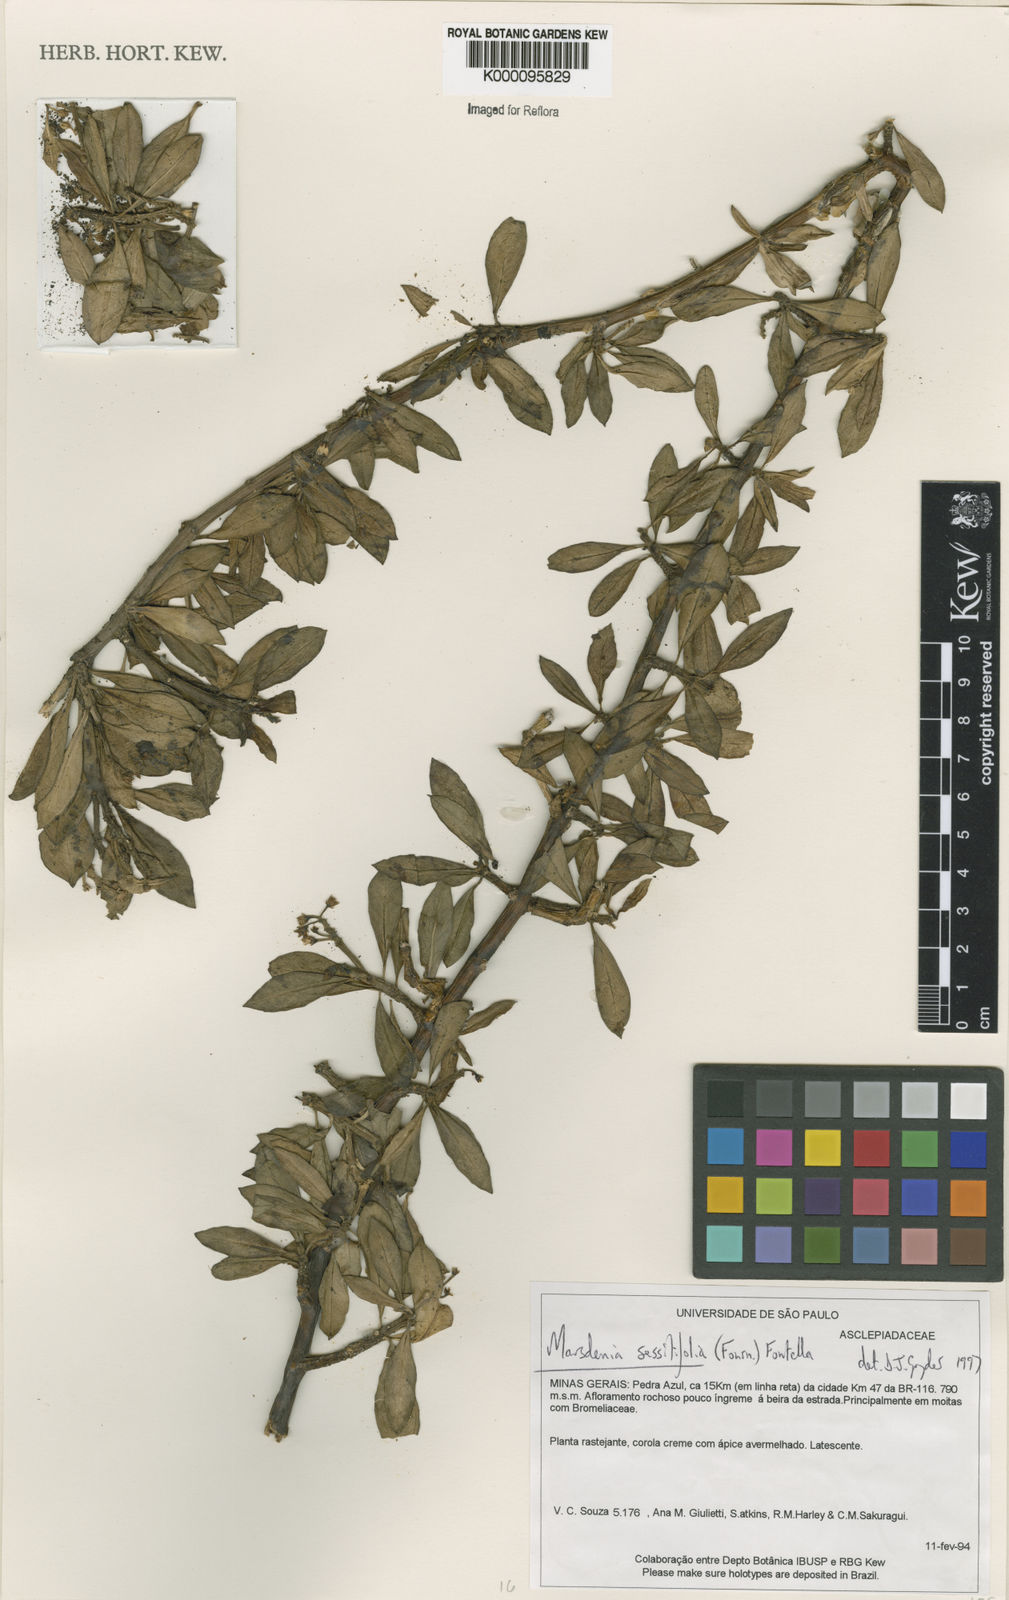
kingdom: Plantae
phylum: Tracheophyta
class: Magnoliopsida
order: Gentianales
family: Apocynaceae
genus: Ruehssia
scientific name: Ruehssia sessilifolia
